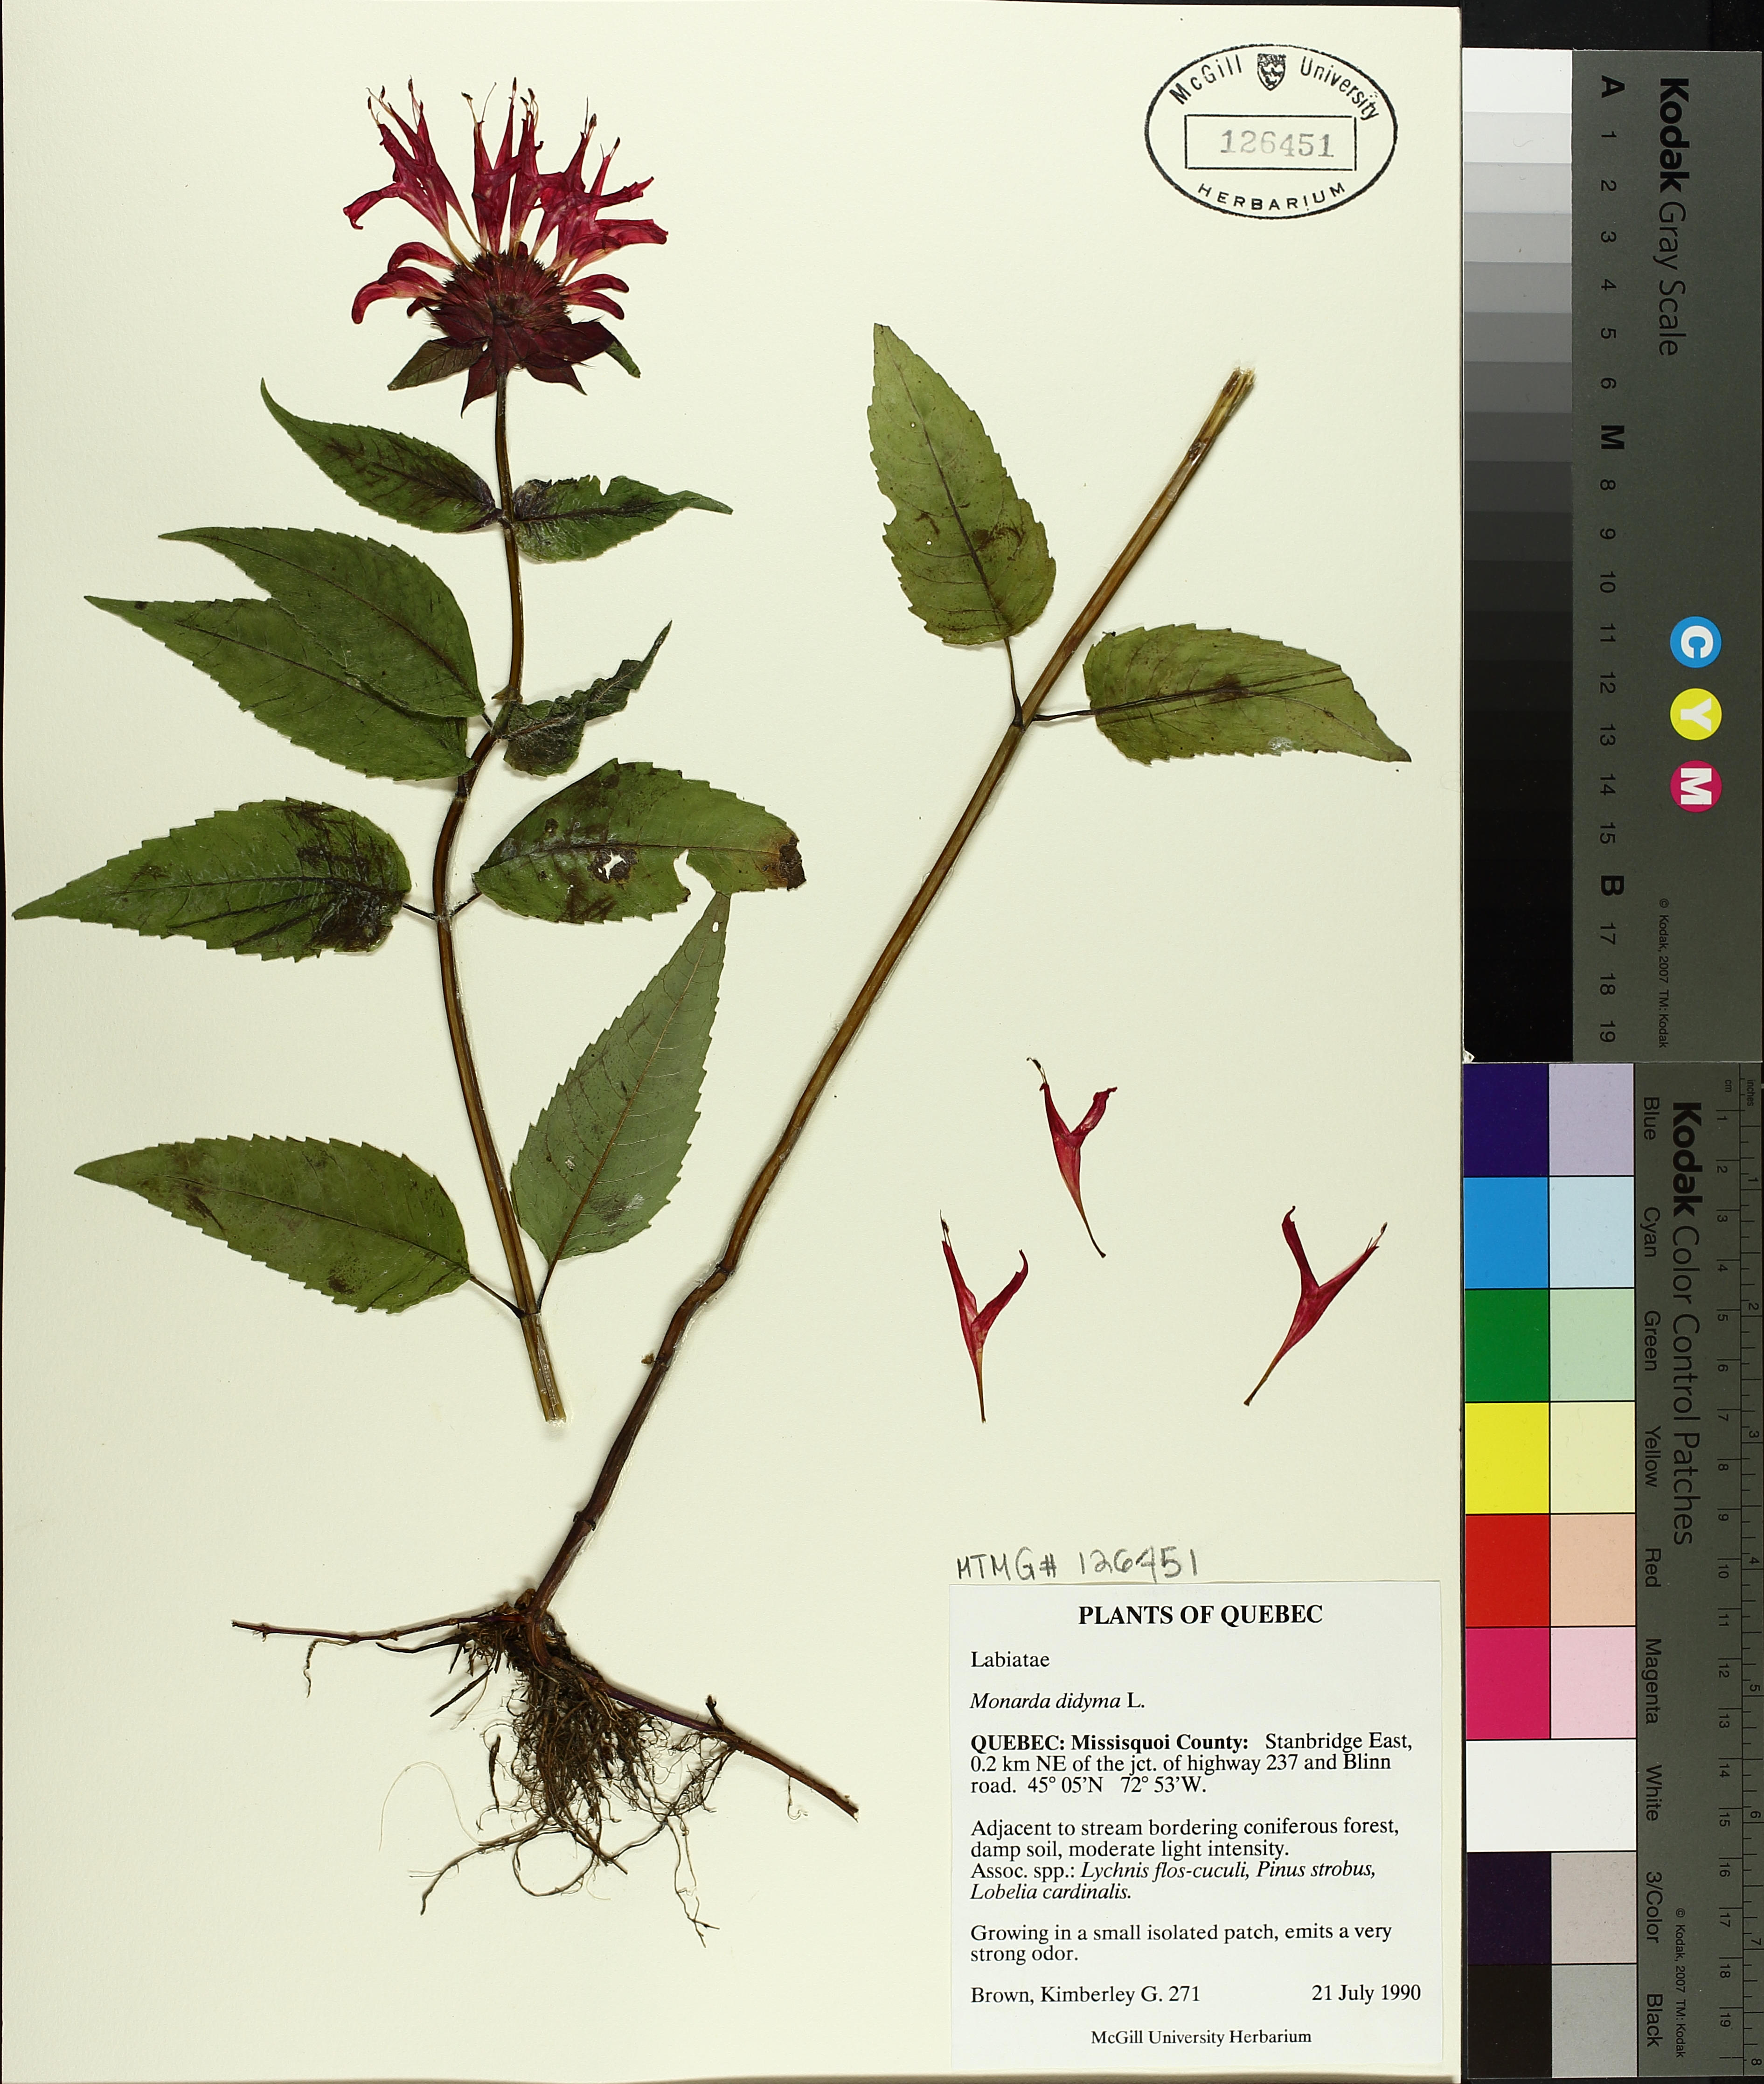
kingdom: Plantae
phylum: Tracheophyta
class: Magnoliopsida
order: Lamiales
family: Lamiaceae
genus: Monarda
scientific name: Monarda didyma
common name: Beebalm
